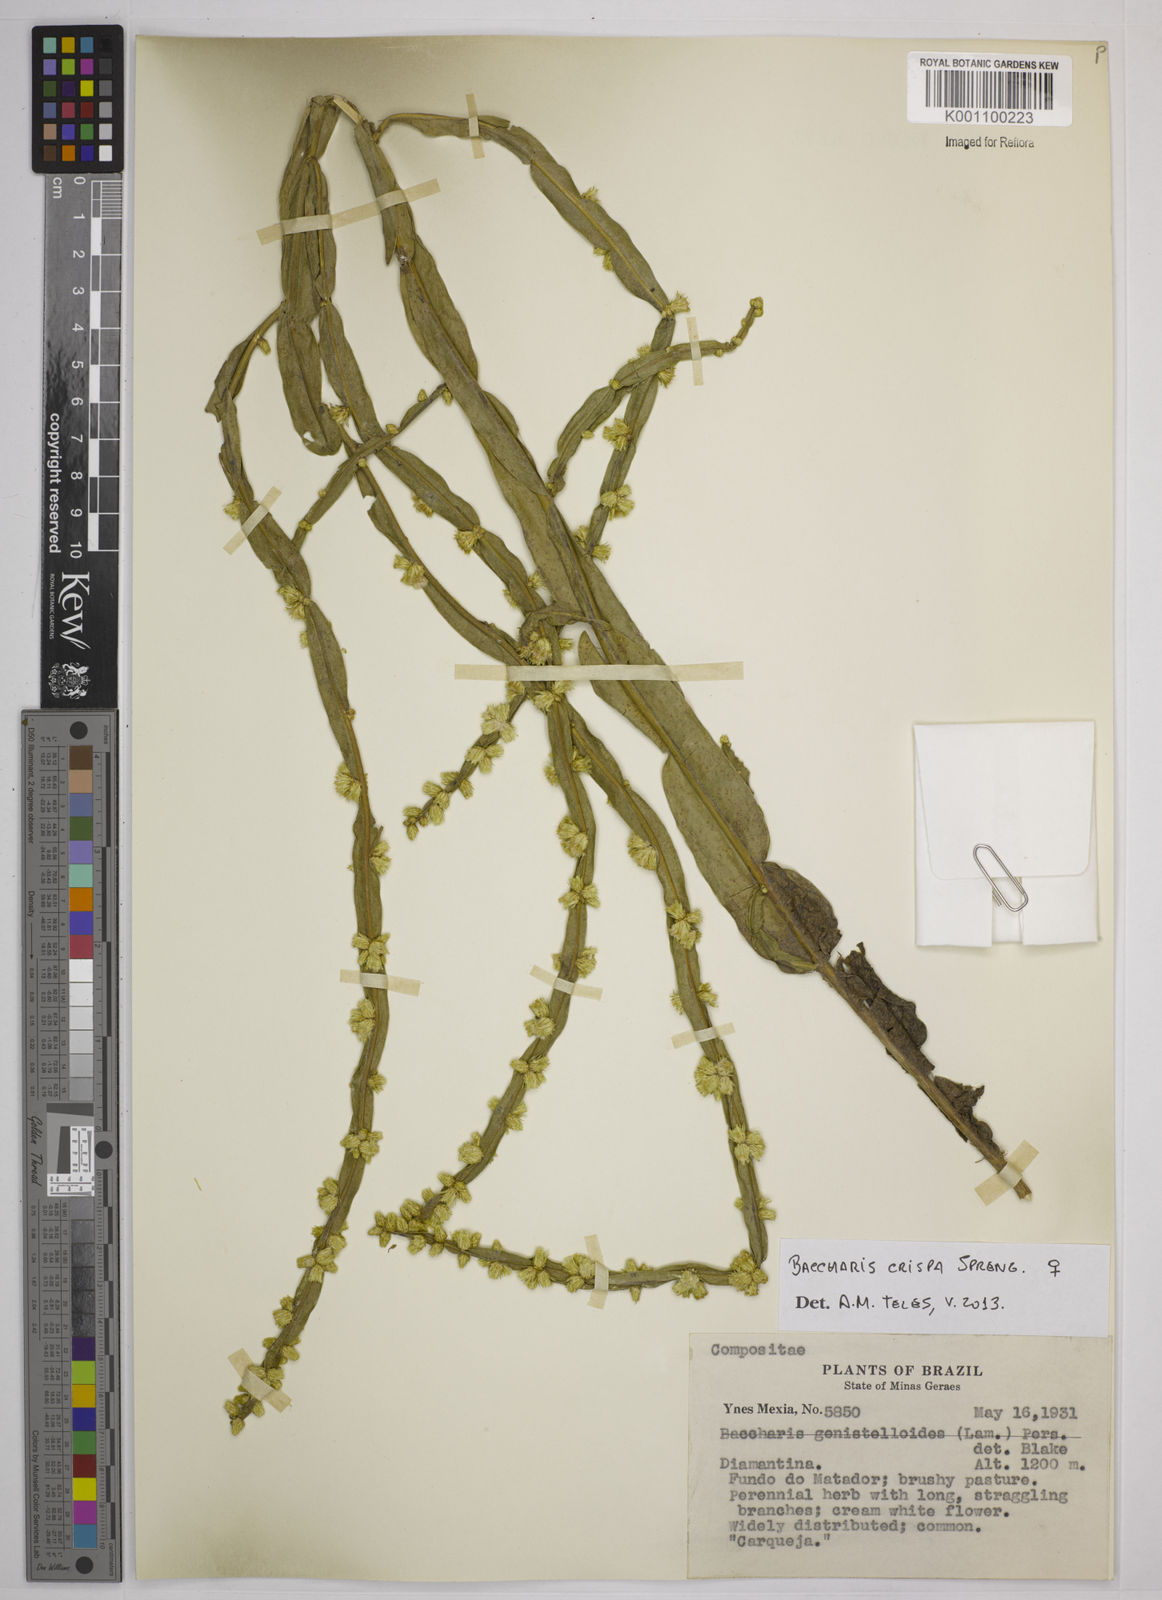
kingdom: Plantae
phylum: Tracheophyta
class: Magnoliopsida
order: Asterales
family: Asteraceae
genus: Baccharis
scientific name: Baccharis
